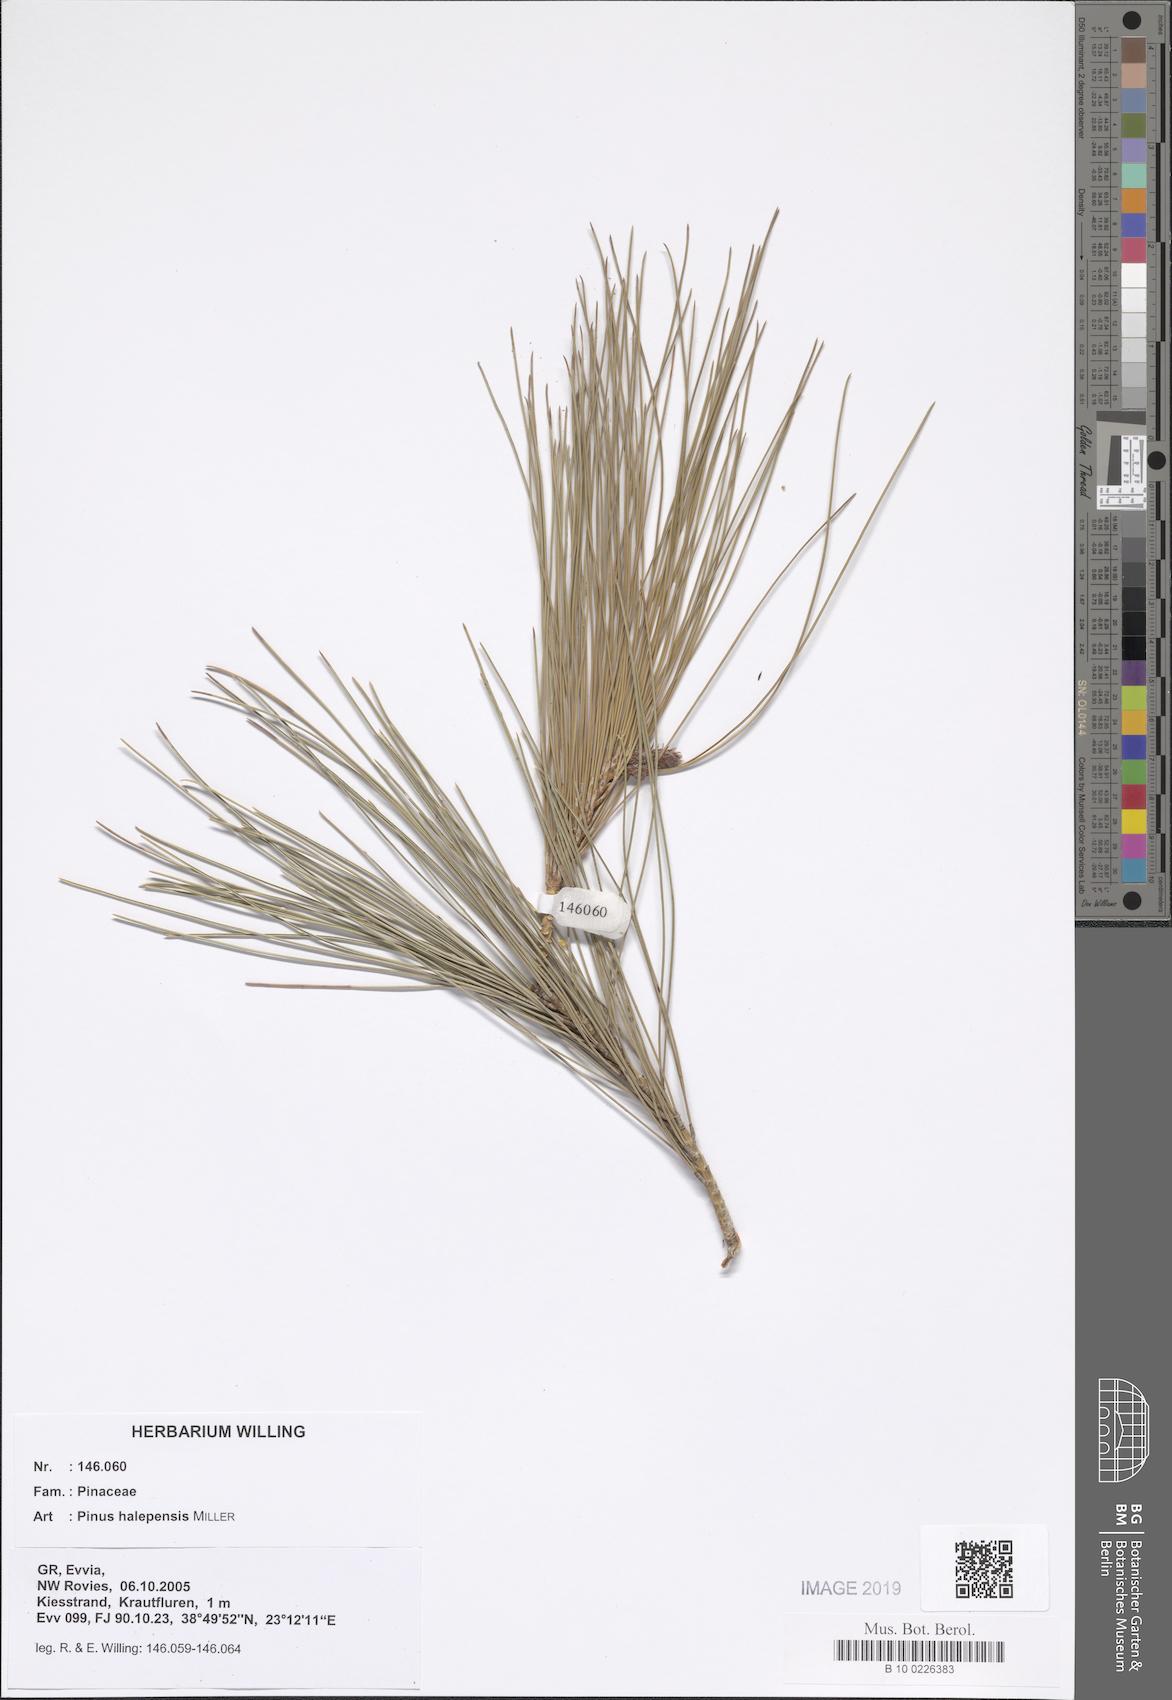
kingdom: Plantae
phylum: Tracheophyta
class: Pinopsida
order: Pinales
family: Pinaceae
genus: Pinus
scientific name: Pinus halepensis
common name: Aleppo pine
